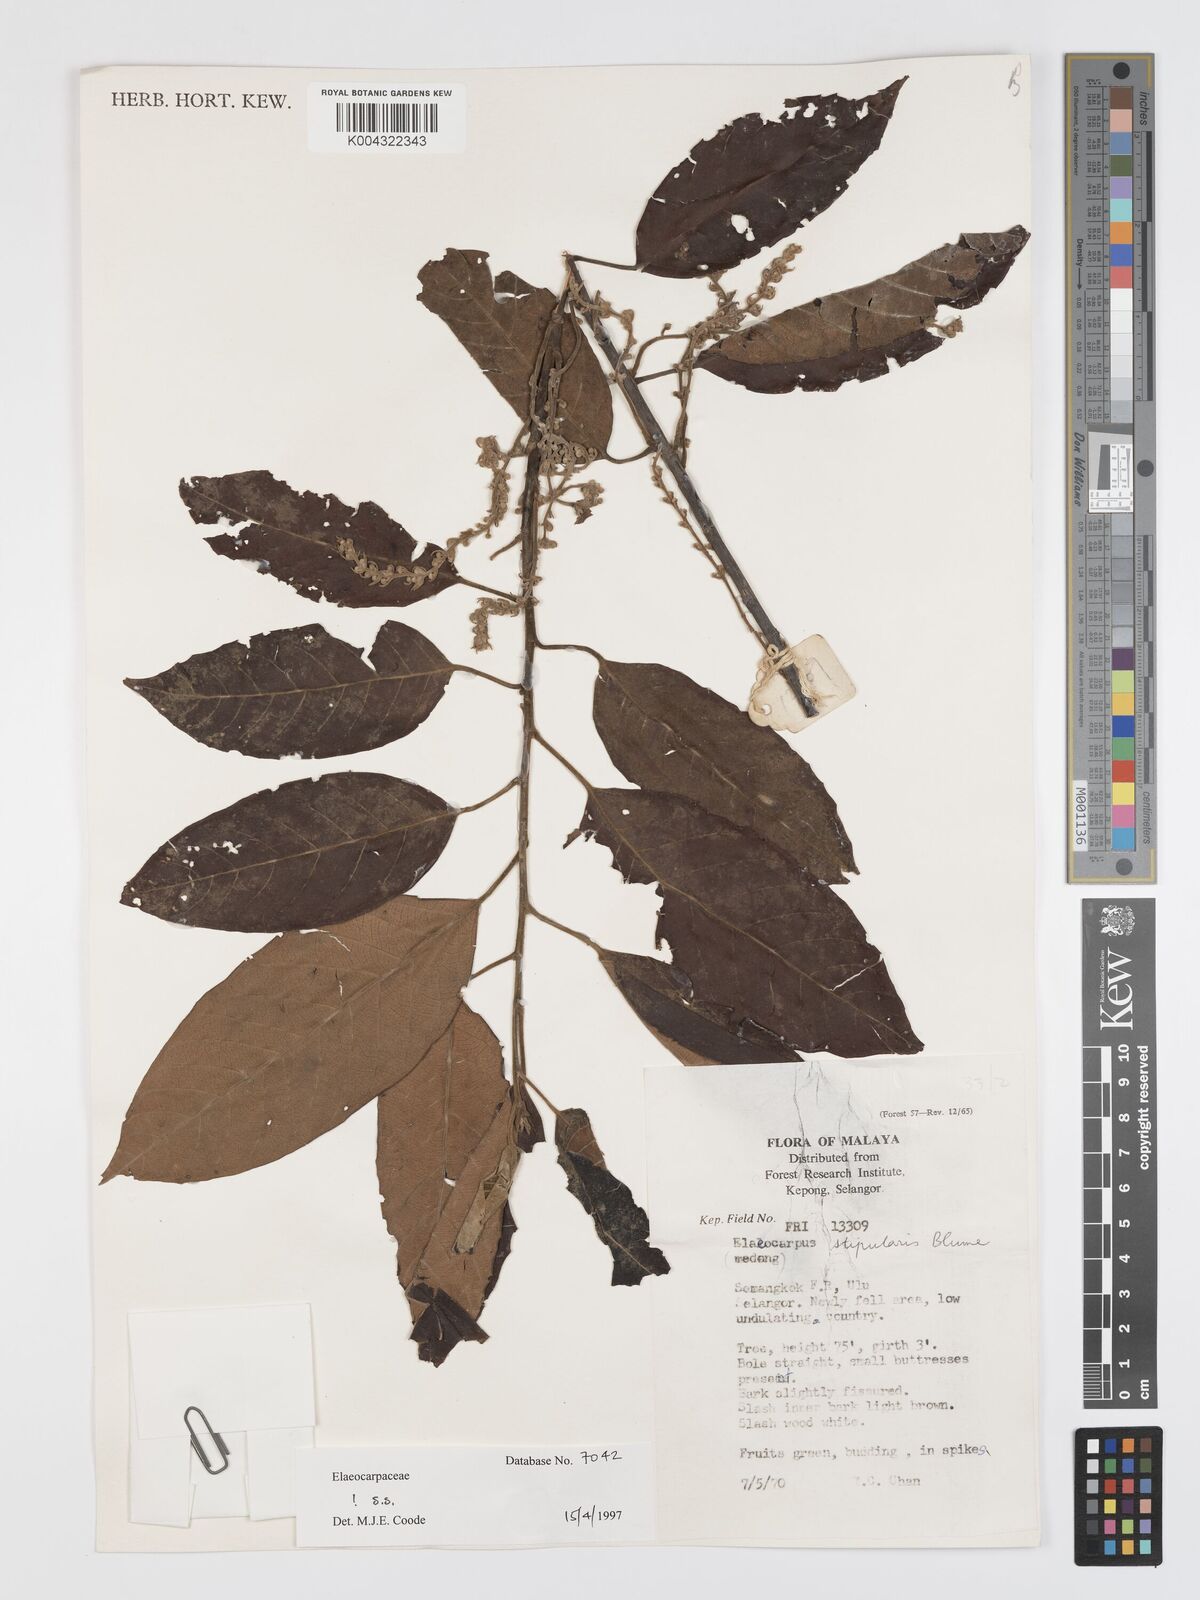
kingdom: Plantae
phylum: Tracheophyta
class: Magnoliopsida
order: Oxalidales
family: Elaeocarpaceae
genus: Elaeocarpus
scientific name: Elaeocarpus stipularis
